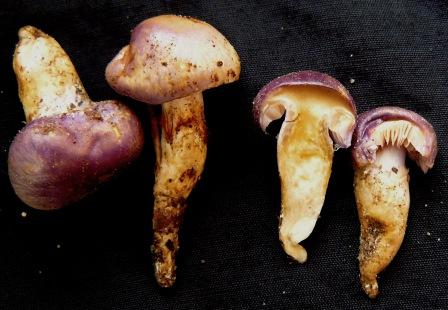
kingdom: Fungi
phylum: Basidiomycota
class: Agaricomycetes
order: Agaricales
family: Cortinariaceae
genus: Thaxterogaster
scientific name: Thaxterogaster croceocoeruleus
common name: blågullig slørhat
